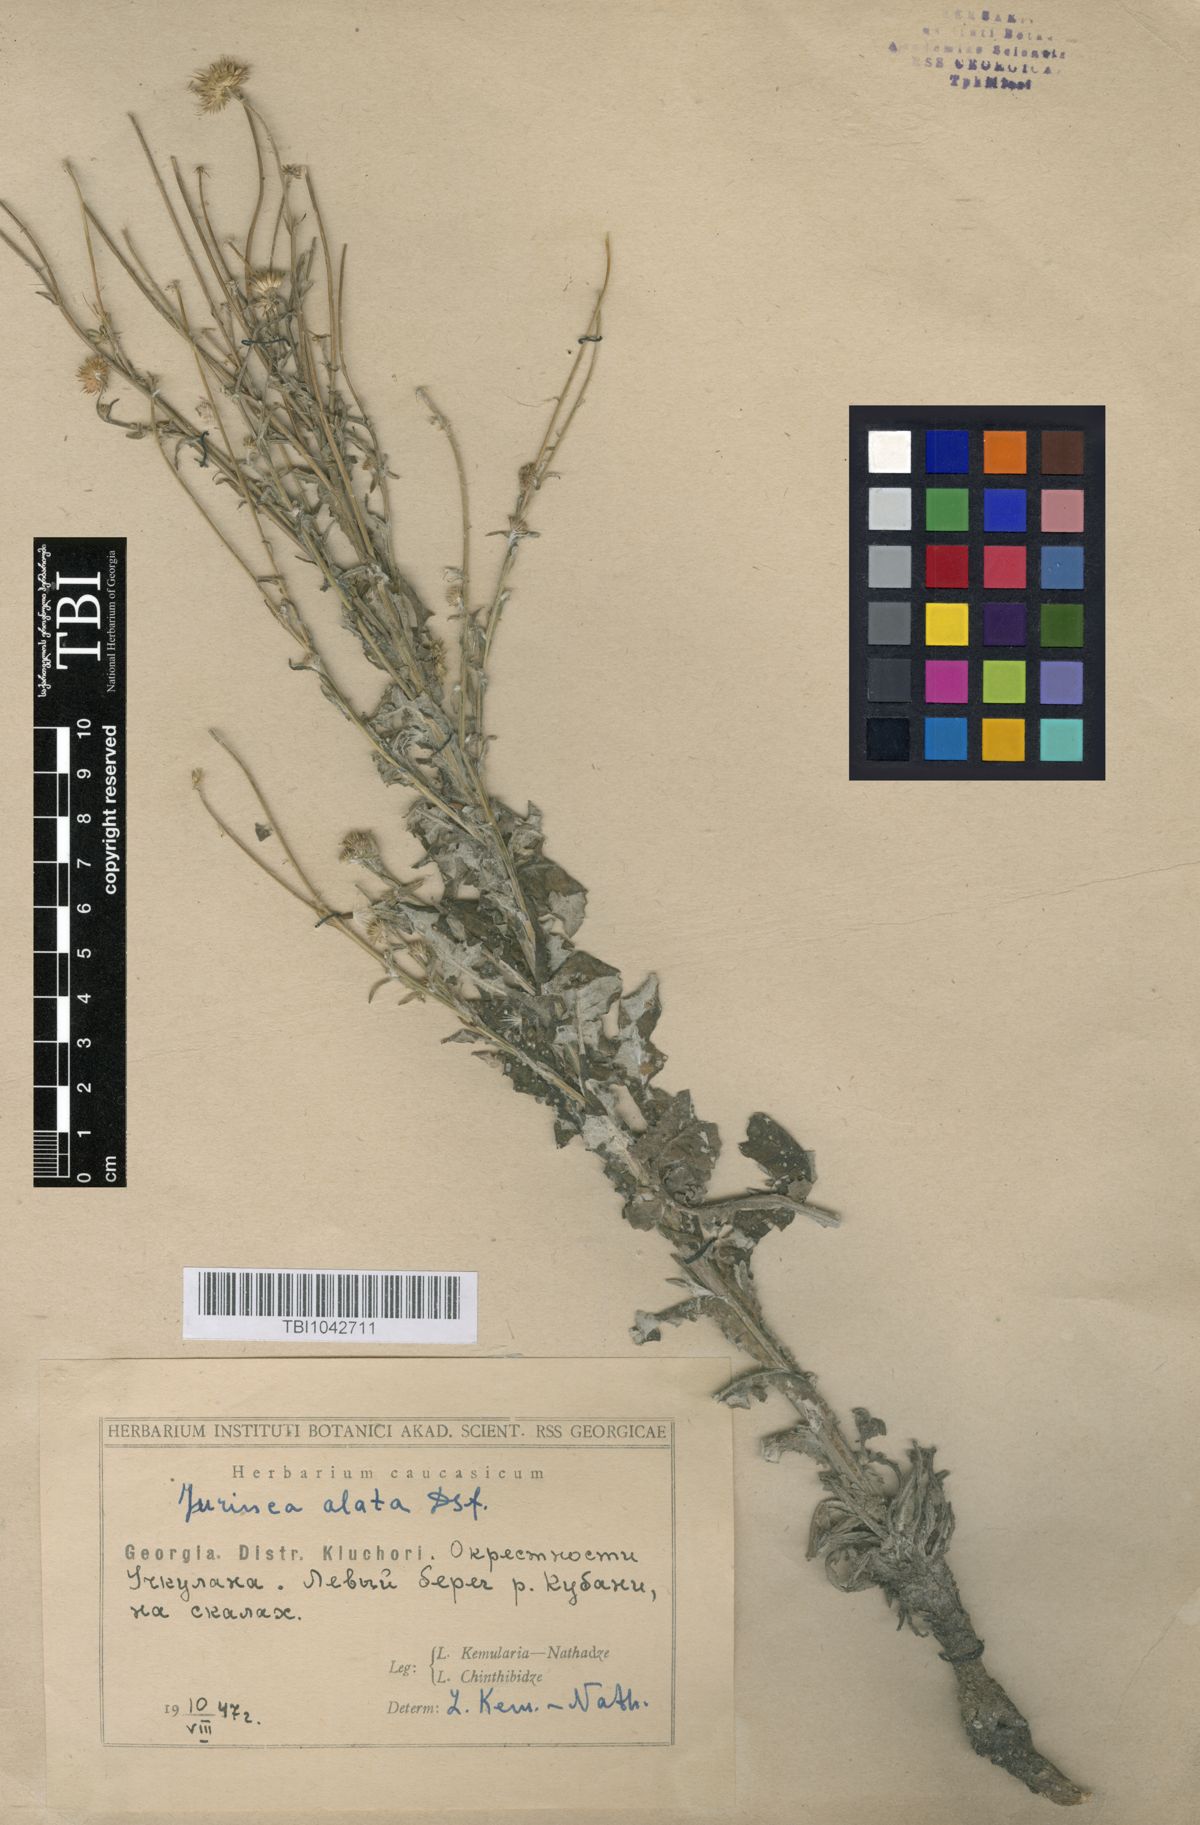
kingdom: Plantae
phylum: Tracheophyta
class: Magnoliopsida
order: Asterales
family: Asteraceae
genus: Jurinea
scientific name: Jurinea alata
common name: Winged jurinea
